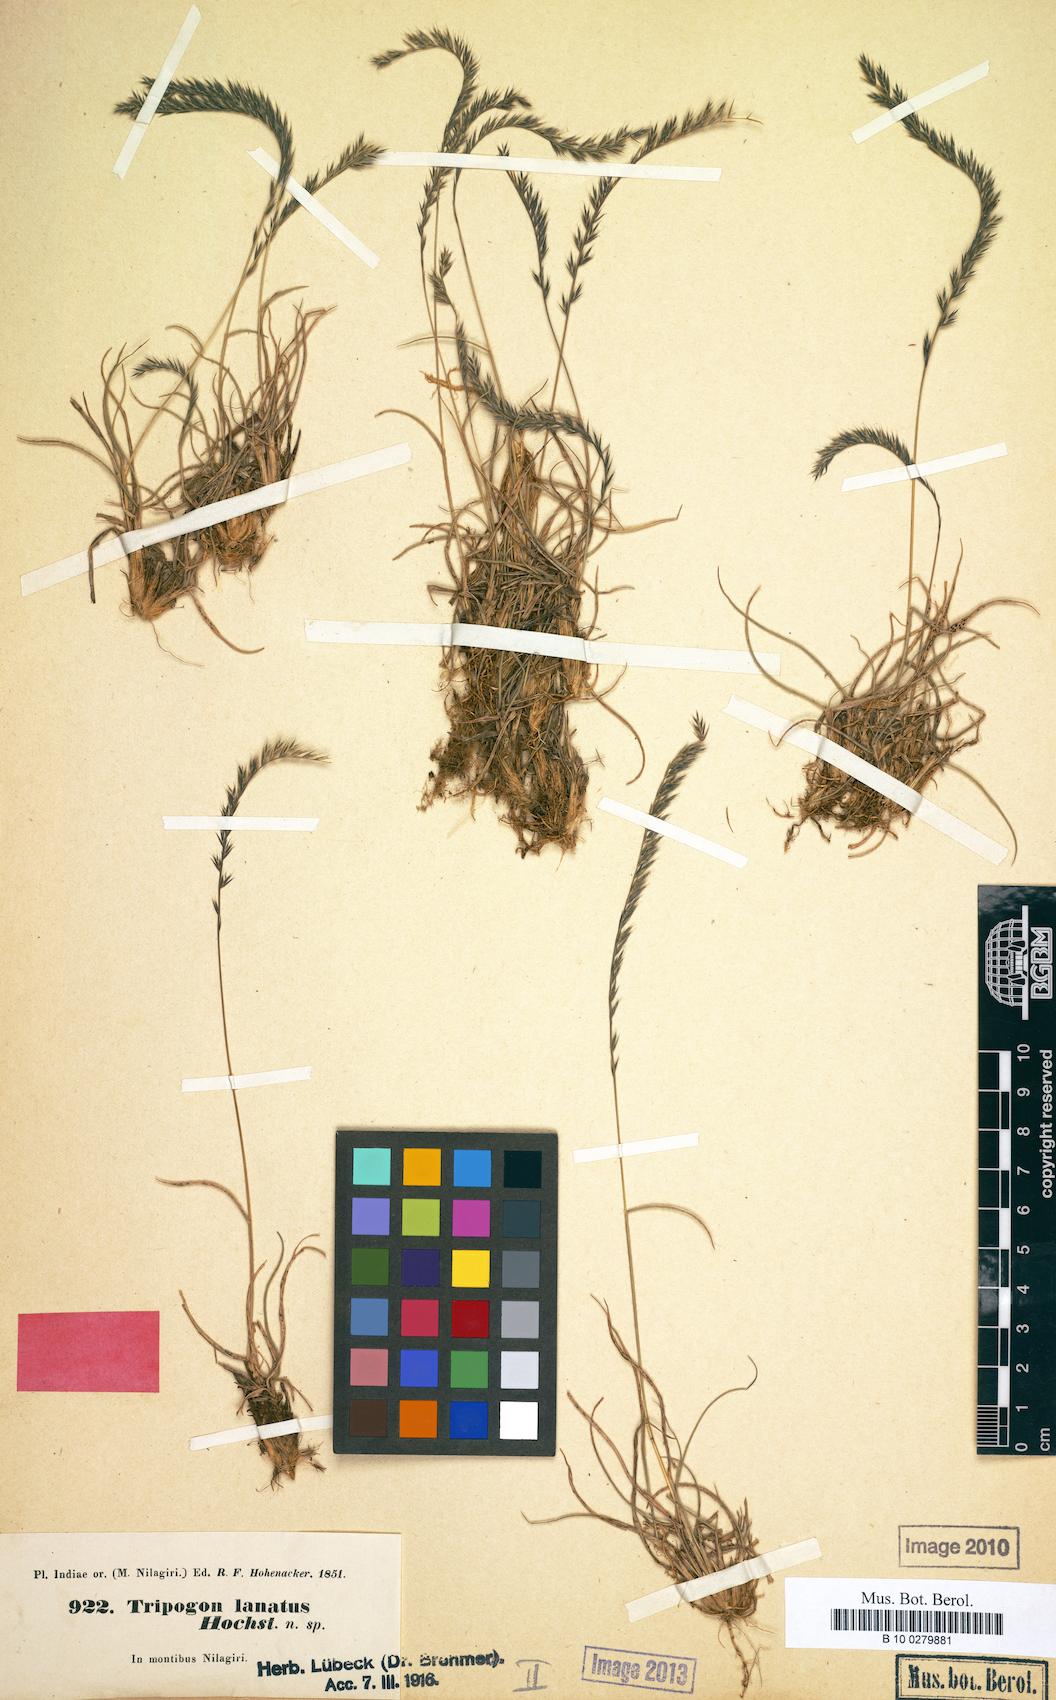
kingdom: Plantae
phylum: Tracheophyta
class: Liliopsida
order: Poales
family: Poaceae
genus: Tripogon
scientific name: Tripogon bromoides
